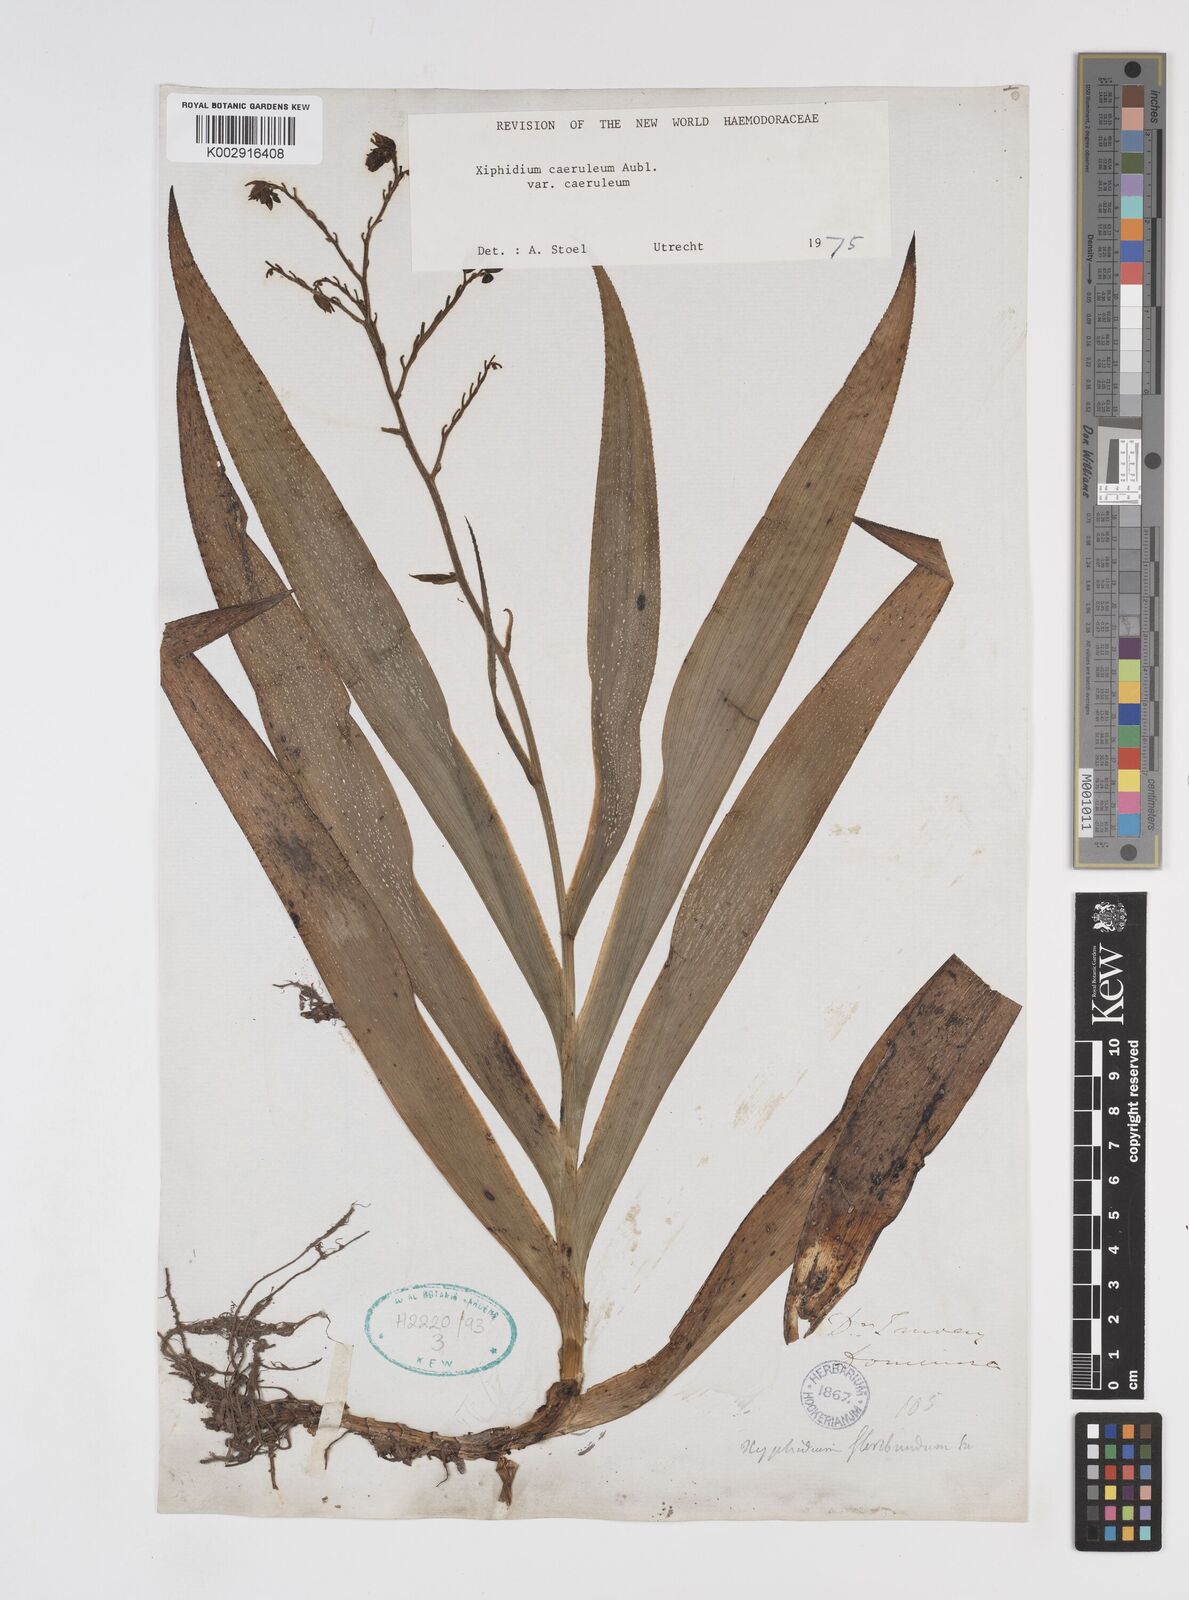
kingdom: Plantae
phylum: Tracheophyta
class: Liliopsida
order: Commelinales
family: Haemodoraceae
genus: Xiphidium
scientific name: Xiphidium caeruleum
